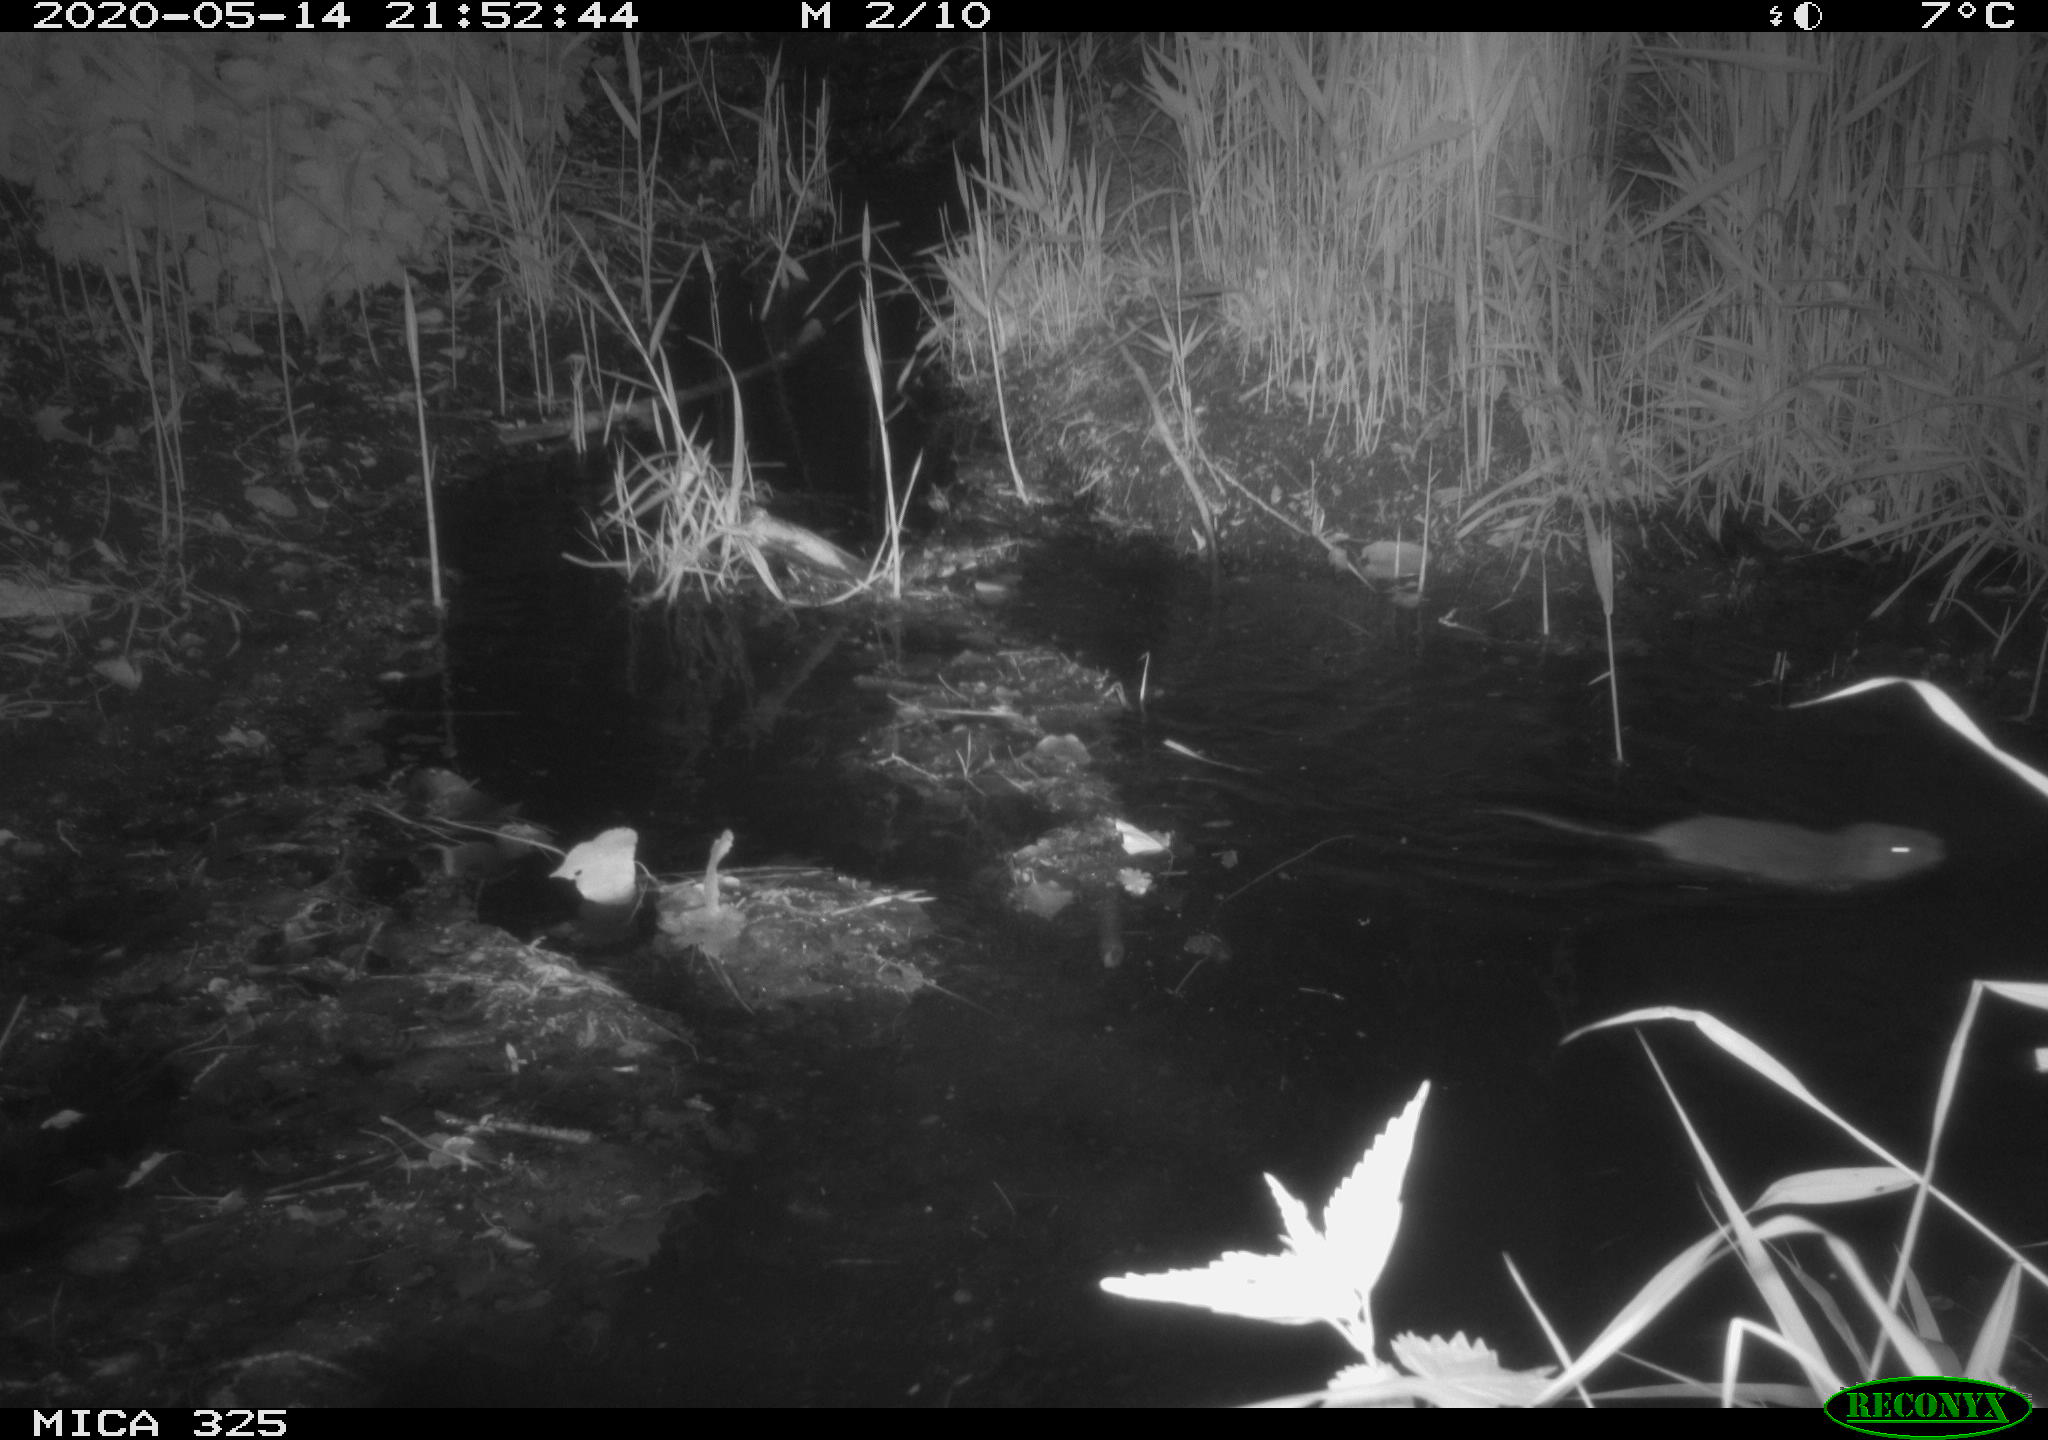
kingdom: Animalia
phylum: Chordata
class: Mammalia
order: Rodentia
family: Myocastoridae
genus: Myocastor
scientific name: Myocastor coypus
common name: Coypu
